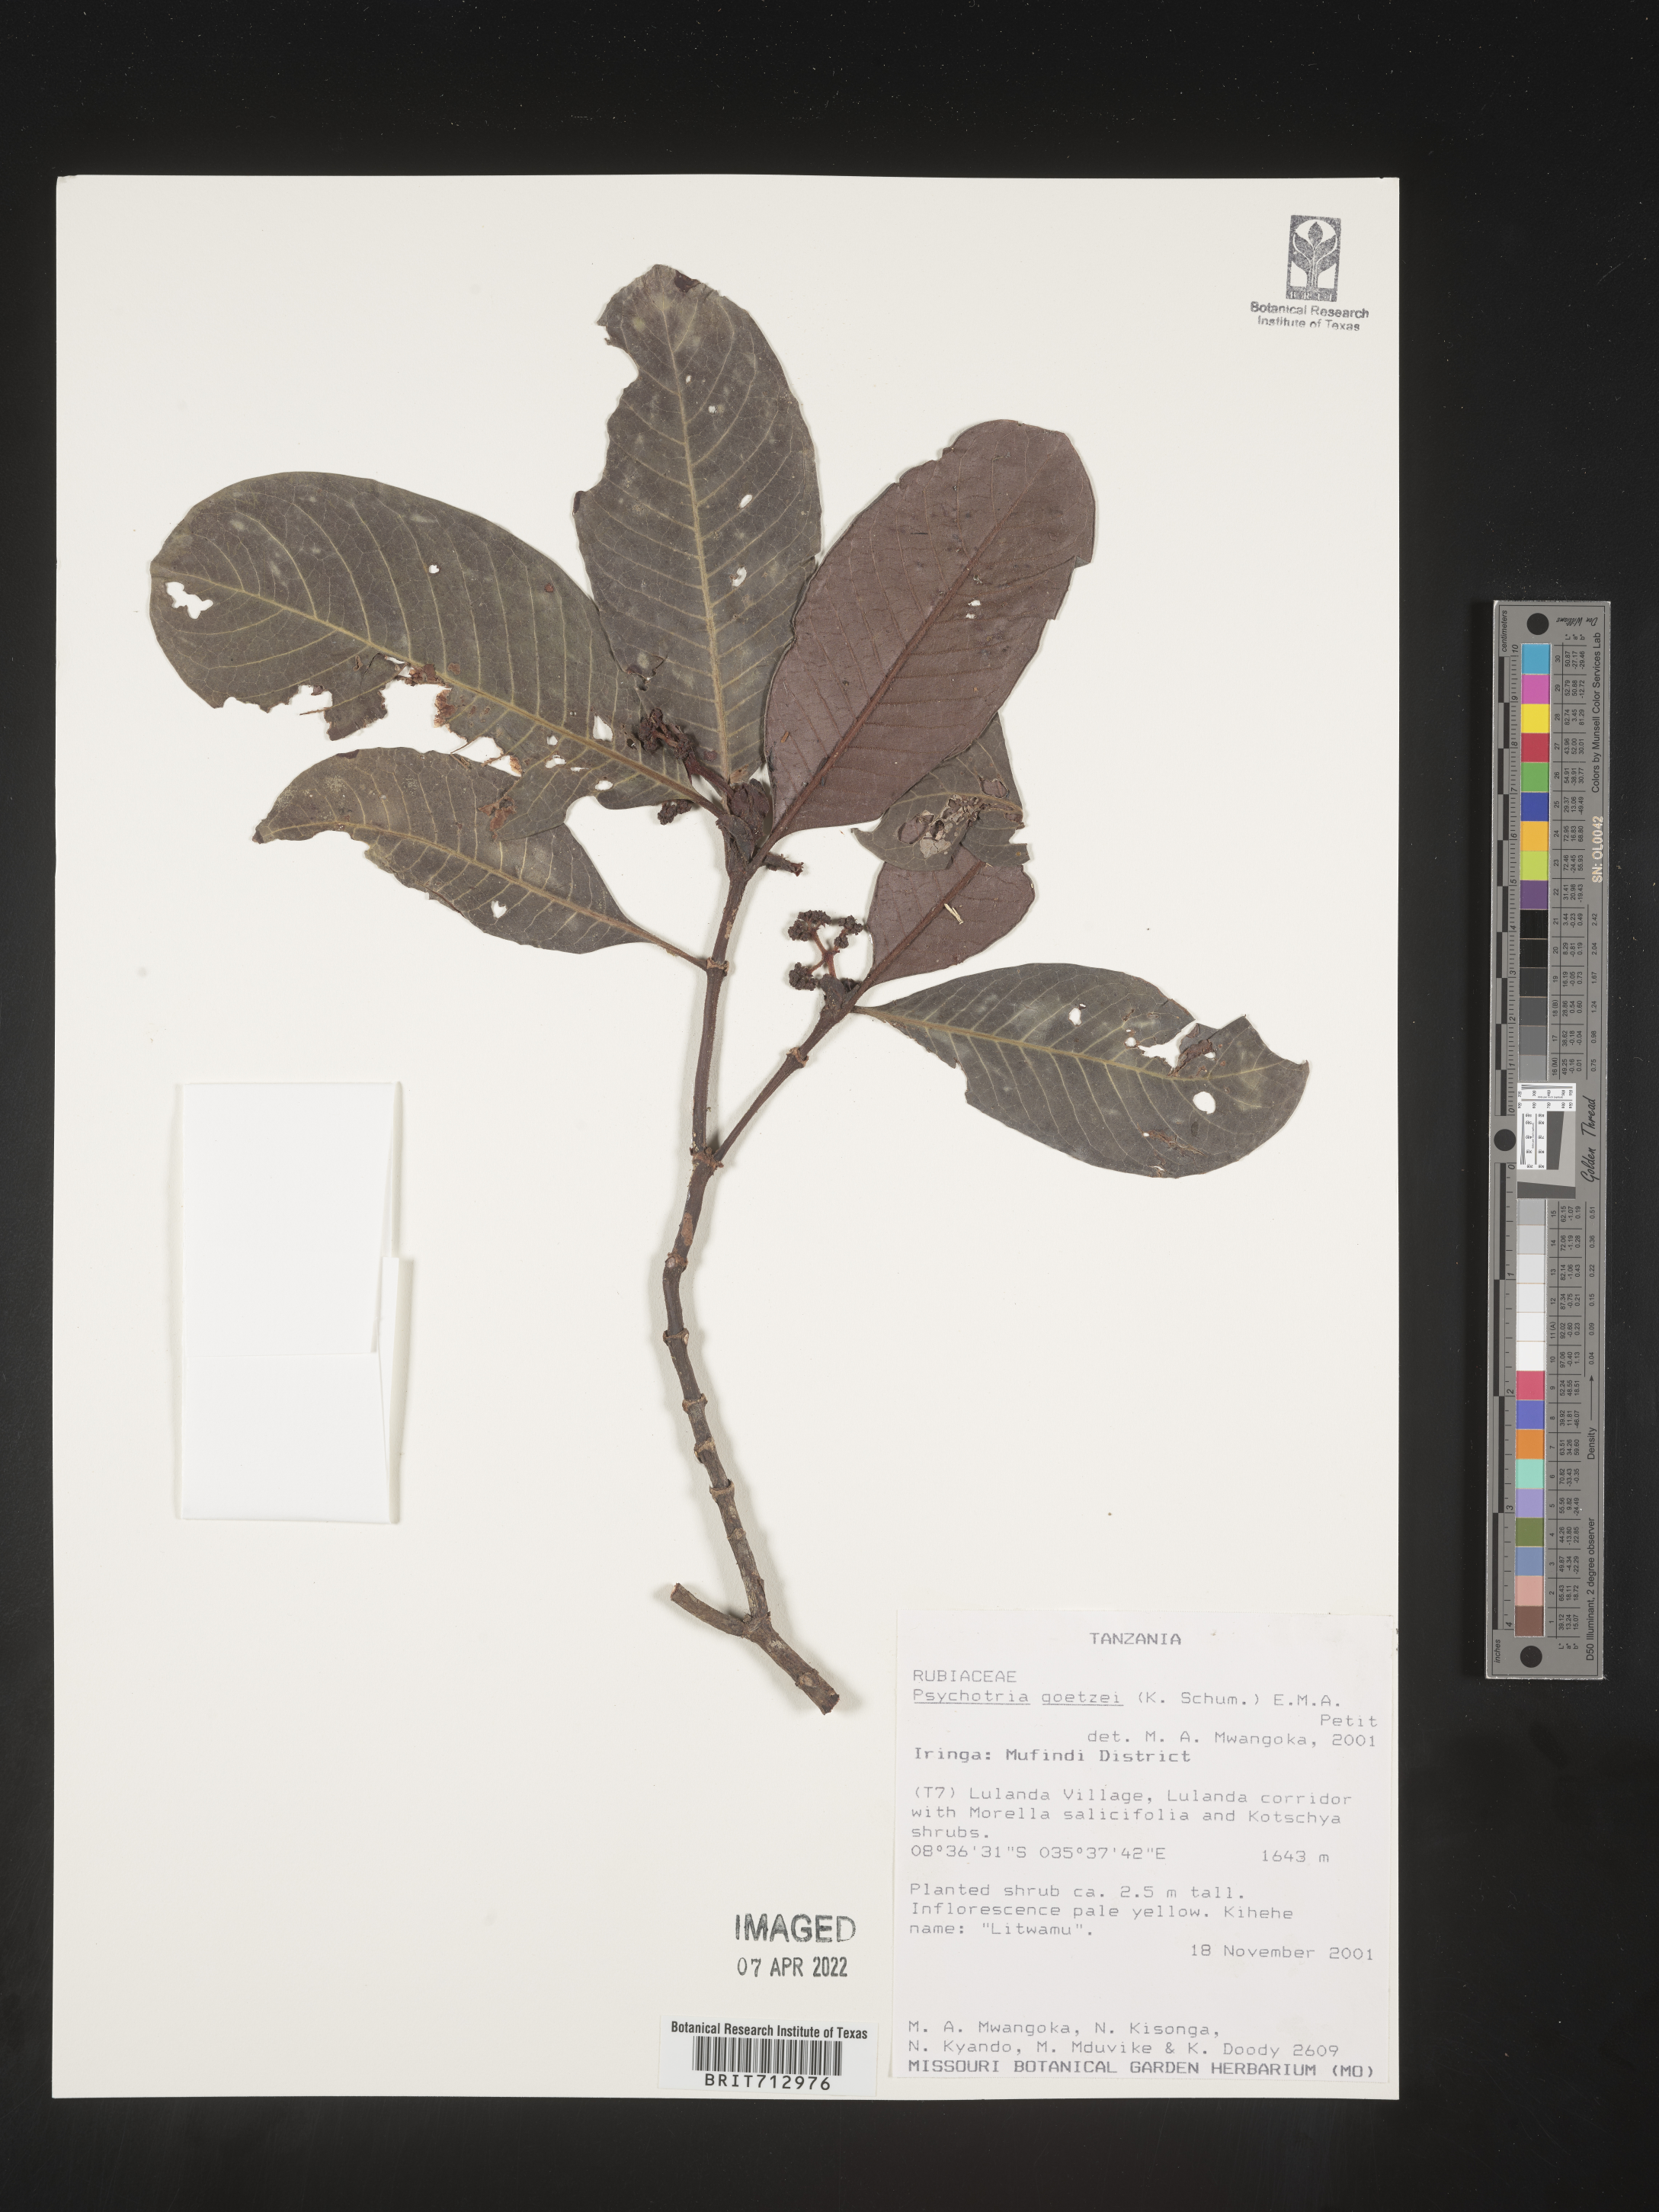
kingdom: Plantae
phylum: Tracheophyta
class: Magnoliopsida
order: Gentianales
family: Rubiaceae
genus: Psychotria
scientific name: Psychotria
